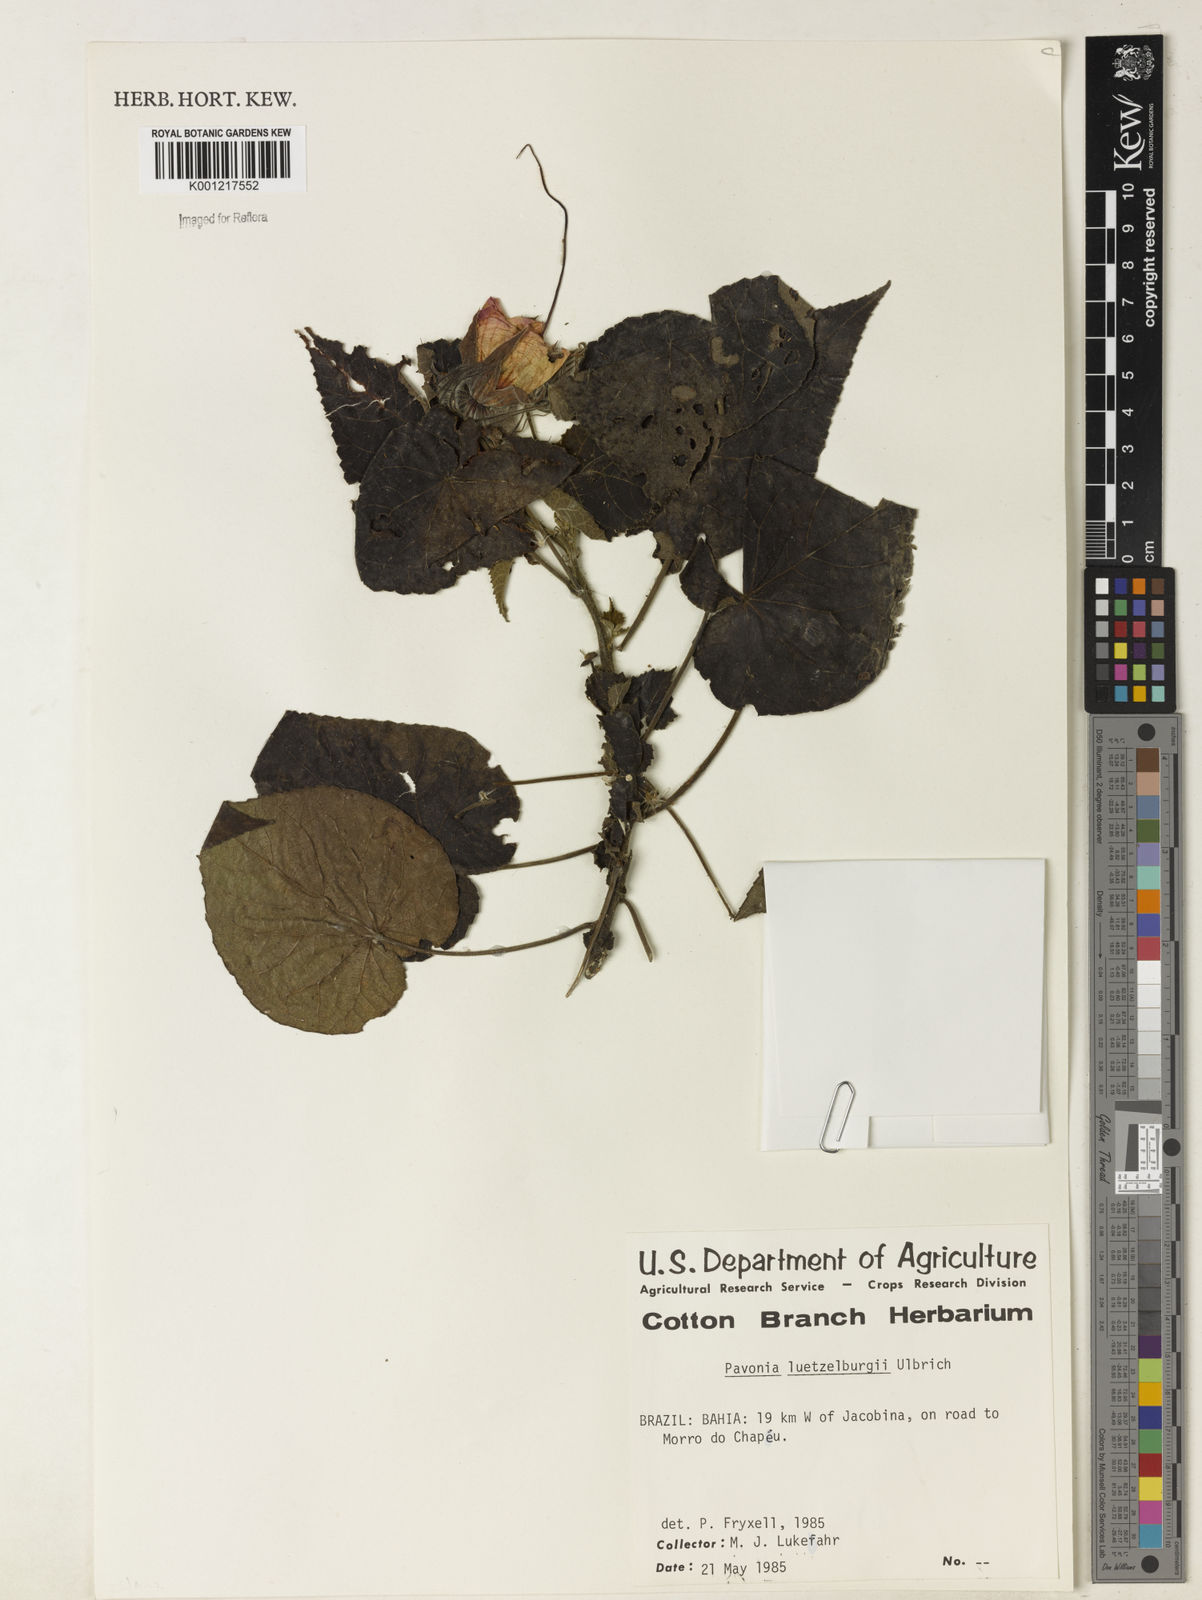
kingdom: Plantae
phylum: Tracheophyta
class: Magnoliopsida
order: Malvales
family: Malvaceae
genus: Pavonia
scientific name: Pavonia luetzelburgii
